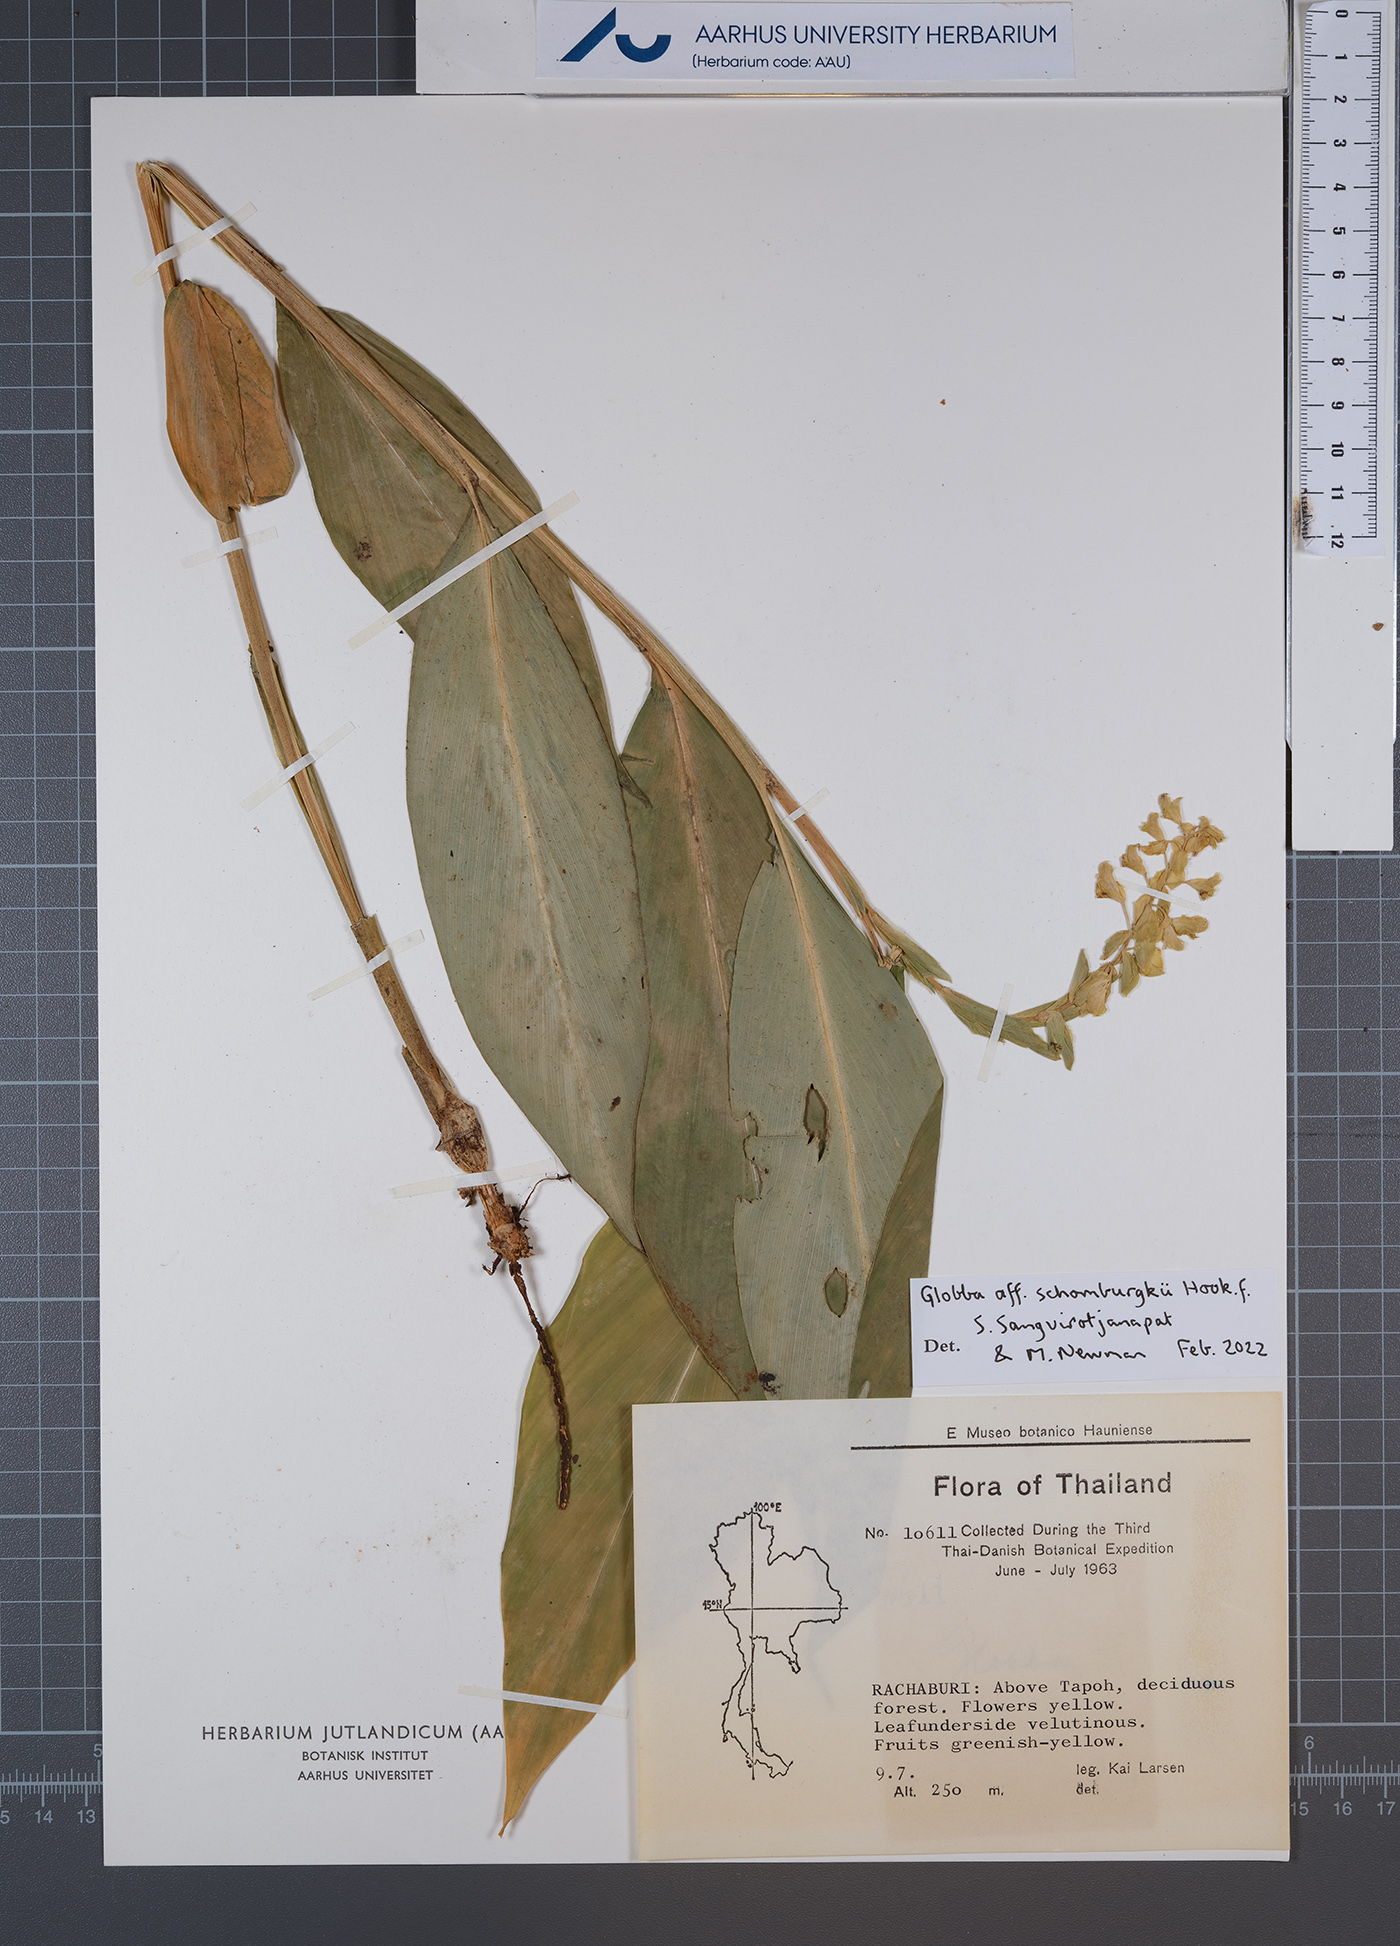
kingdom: Plantae
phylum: Tracheophyta
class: Liliopsida
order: Zingiberales
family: Zingiberaceae
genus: Globba
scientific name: Globba schomburgkii
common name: Dancing girl ginger
